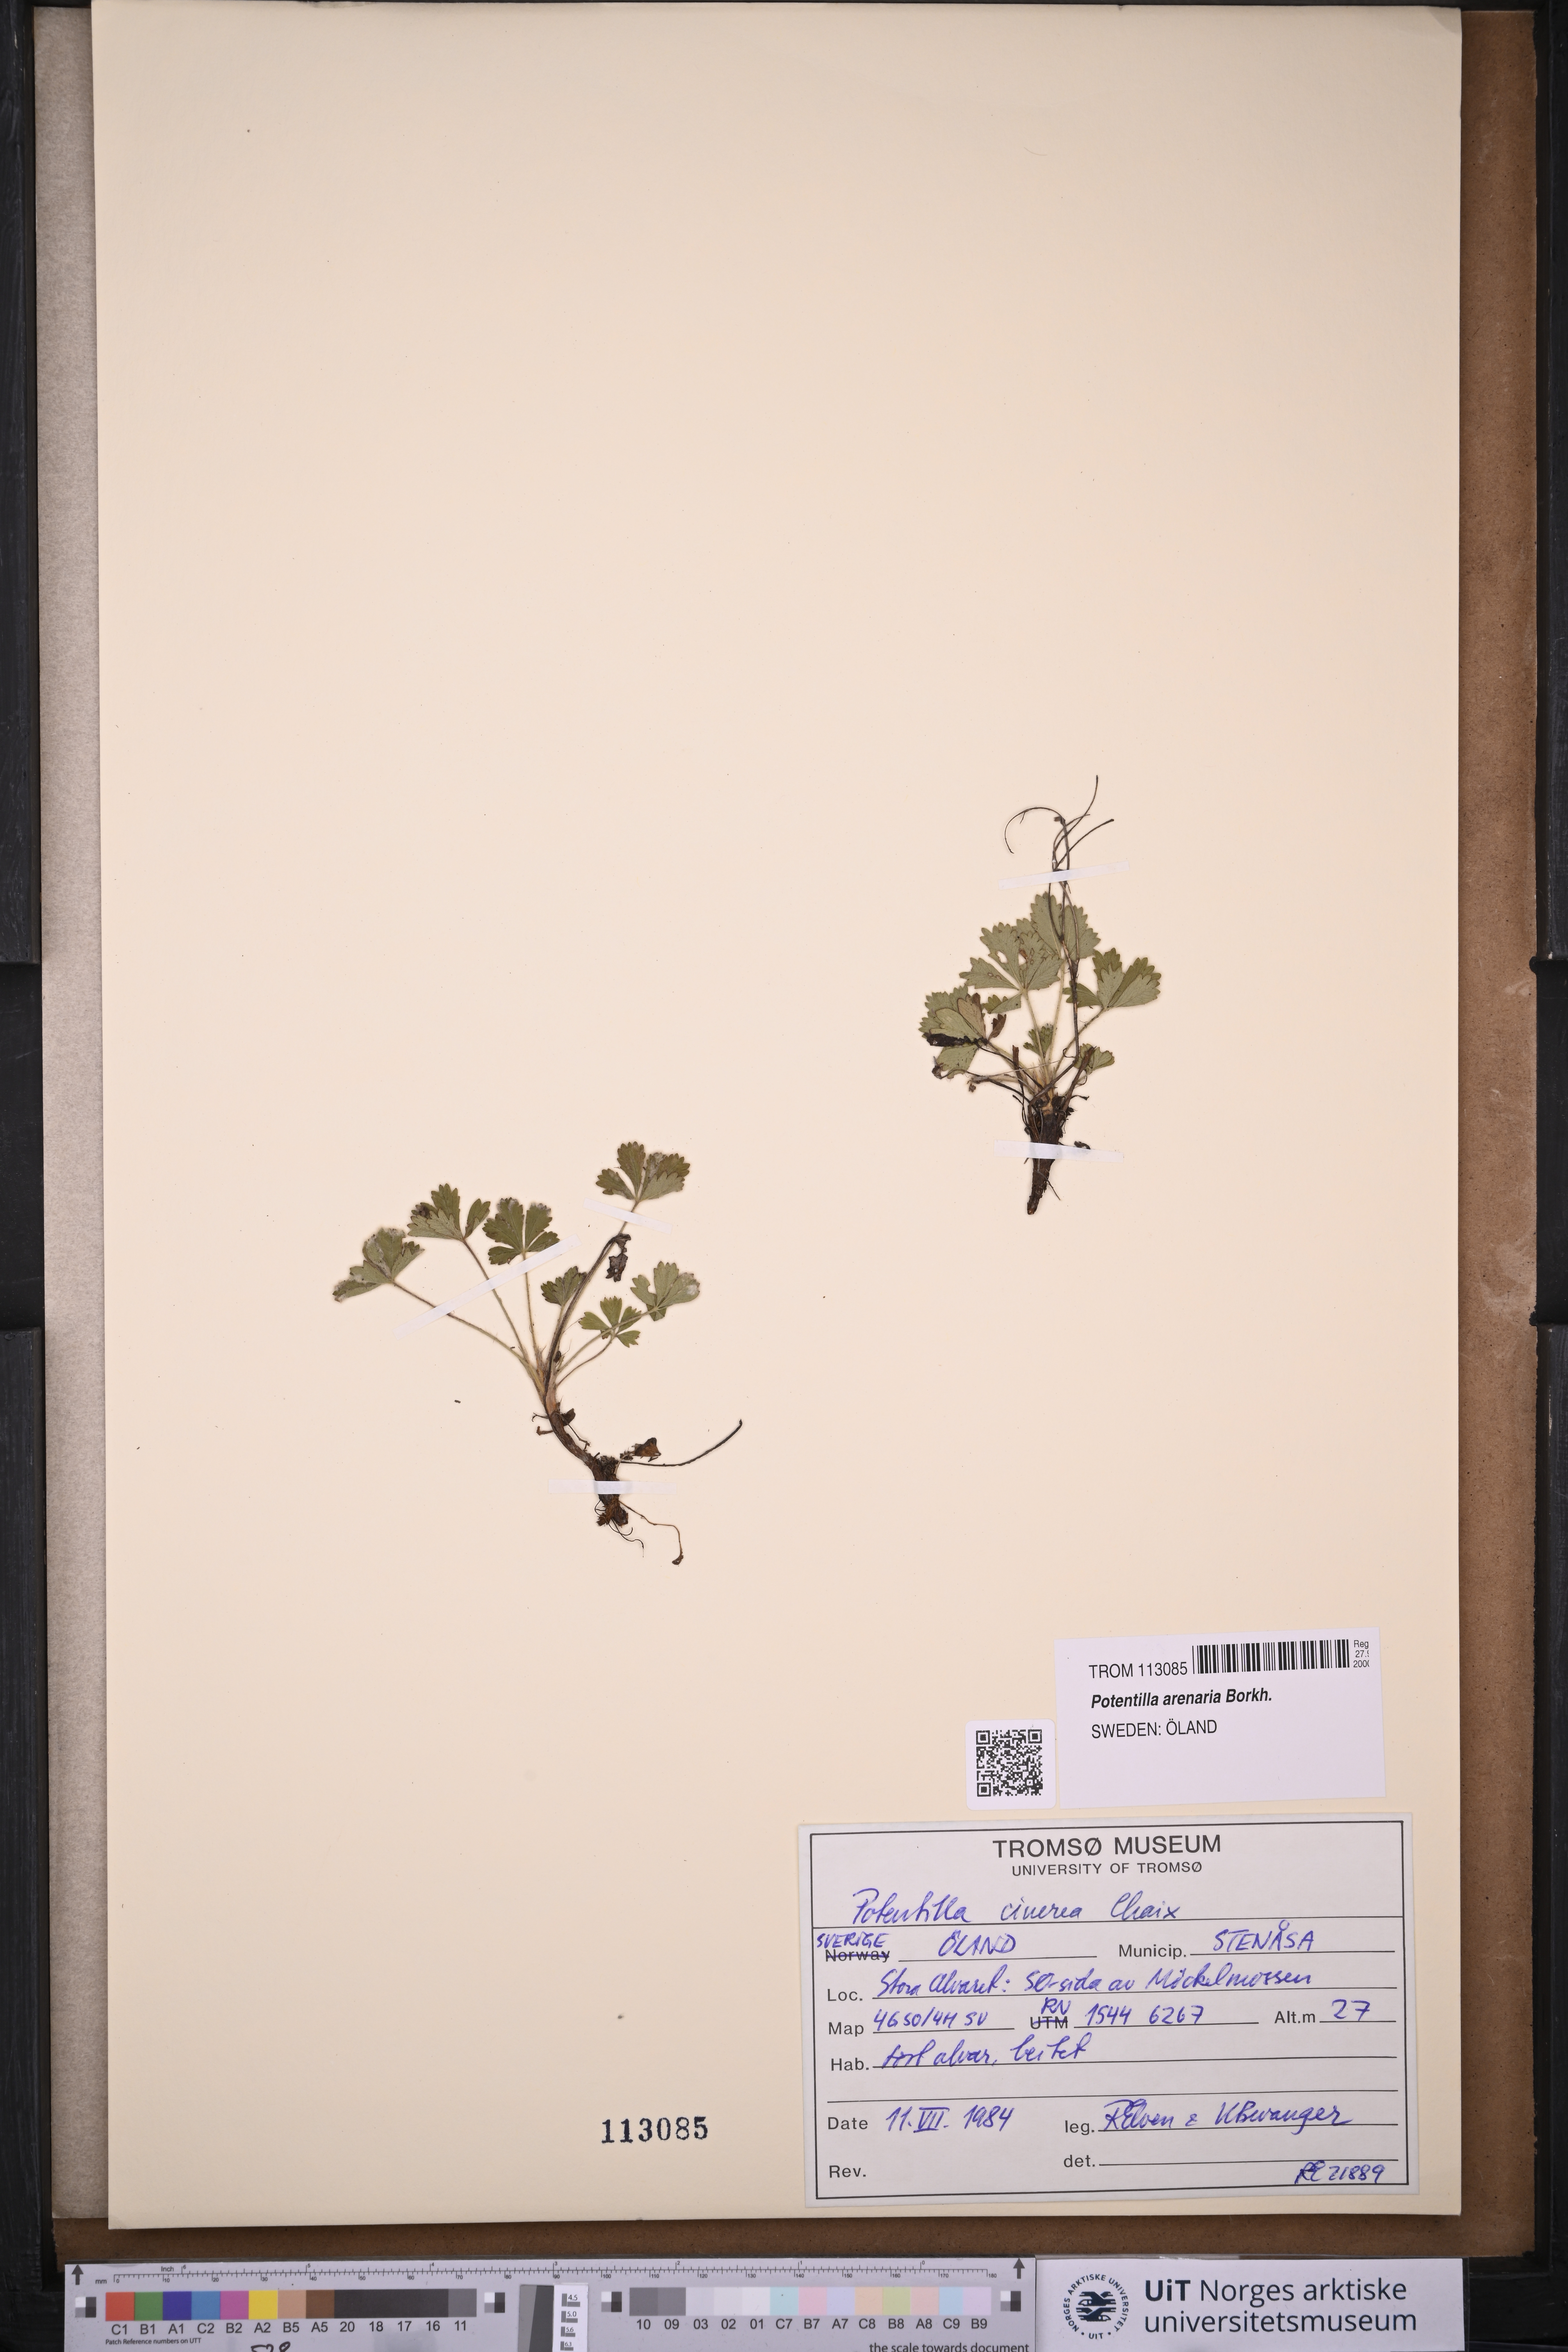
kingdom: Plantae
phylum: Tracheophyta
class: Magnoliopsida
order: Rosales
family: Rosaceae
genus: Potentilla
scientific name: Potentilla cinerea
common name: Ashy cinquefoil
